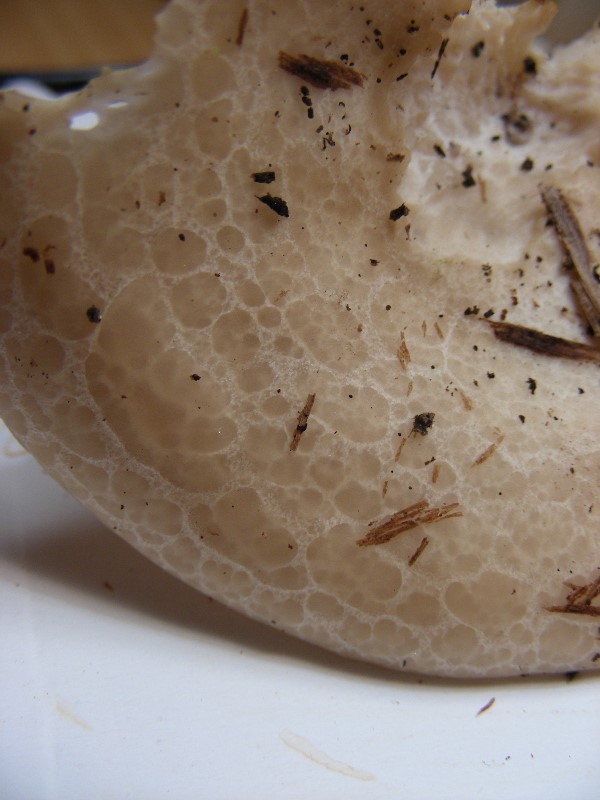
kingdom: Fungi
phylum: Basidiomycota
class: Agaricomycetes
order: Agaricales
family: Lyophyllaceae
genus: Hypsizygus
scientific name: Hypsizygus tessulatus
